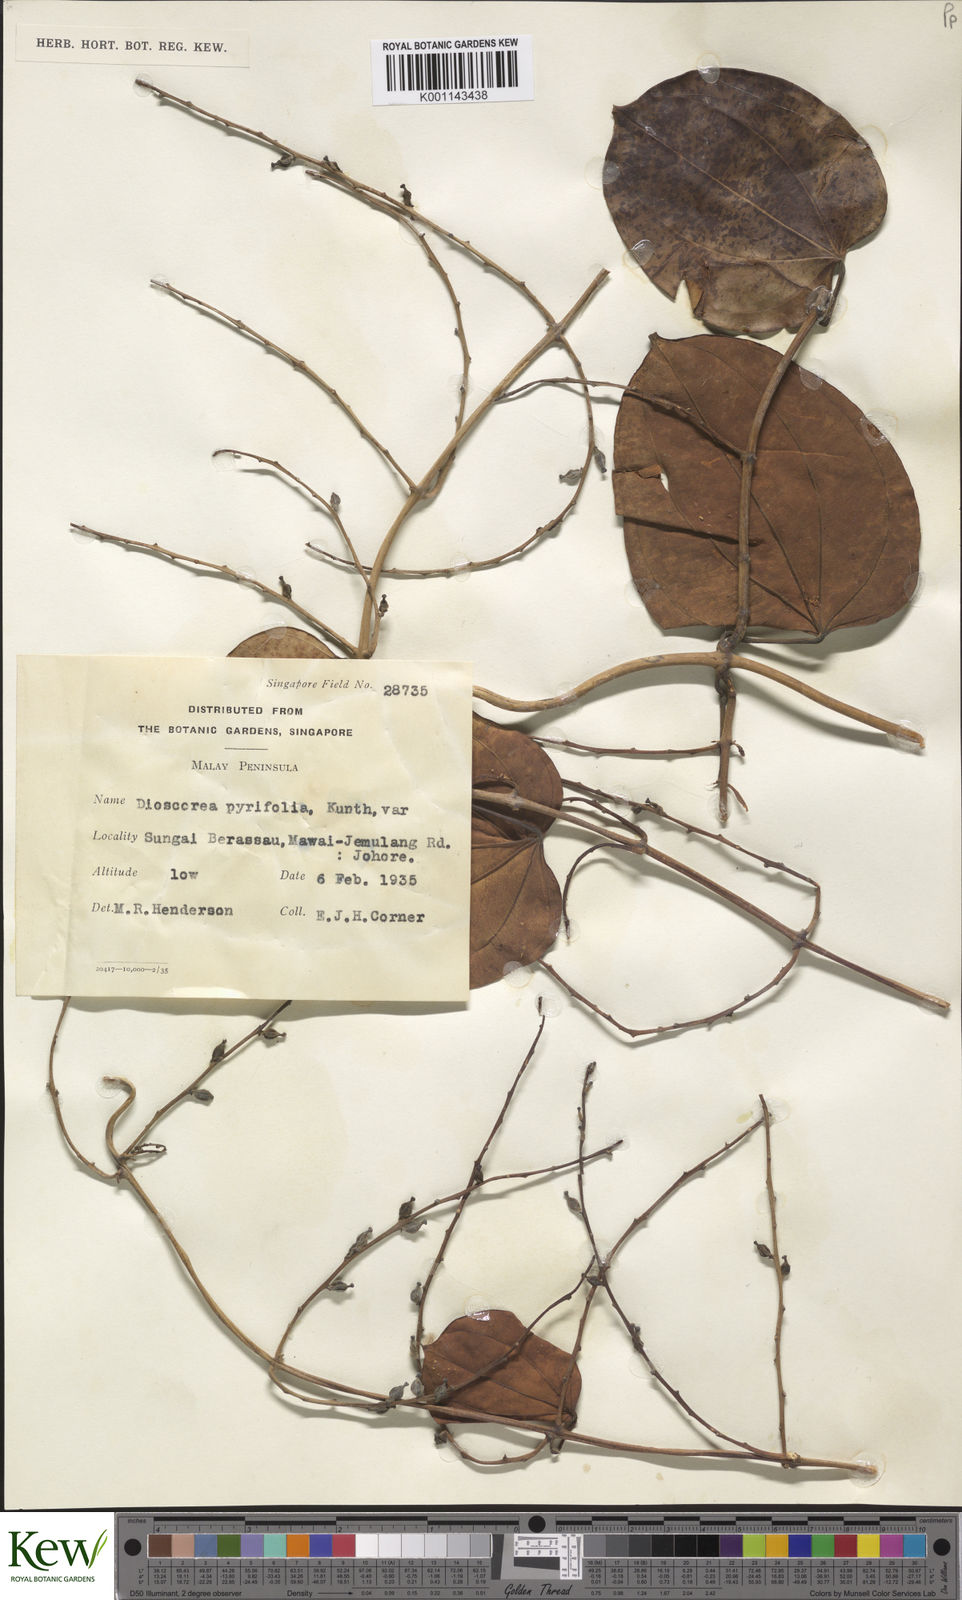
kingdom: Plantae
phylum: Tracheophyta
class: Liliopsida
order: Dioscoreales
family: Dioscoreaceae
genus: Dioscorea
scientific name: Dioscorea pyrifolia
